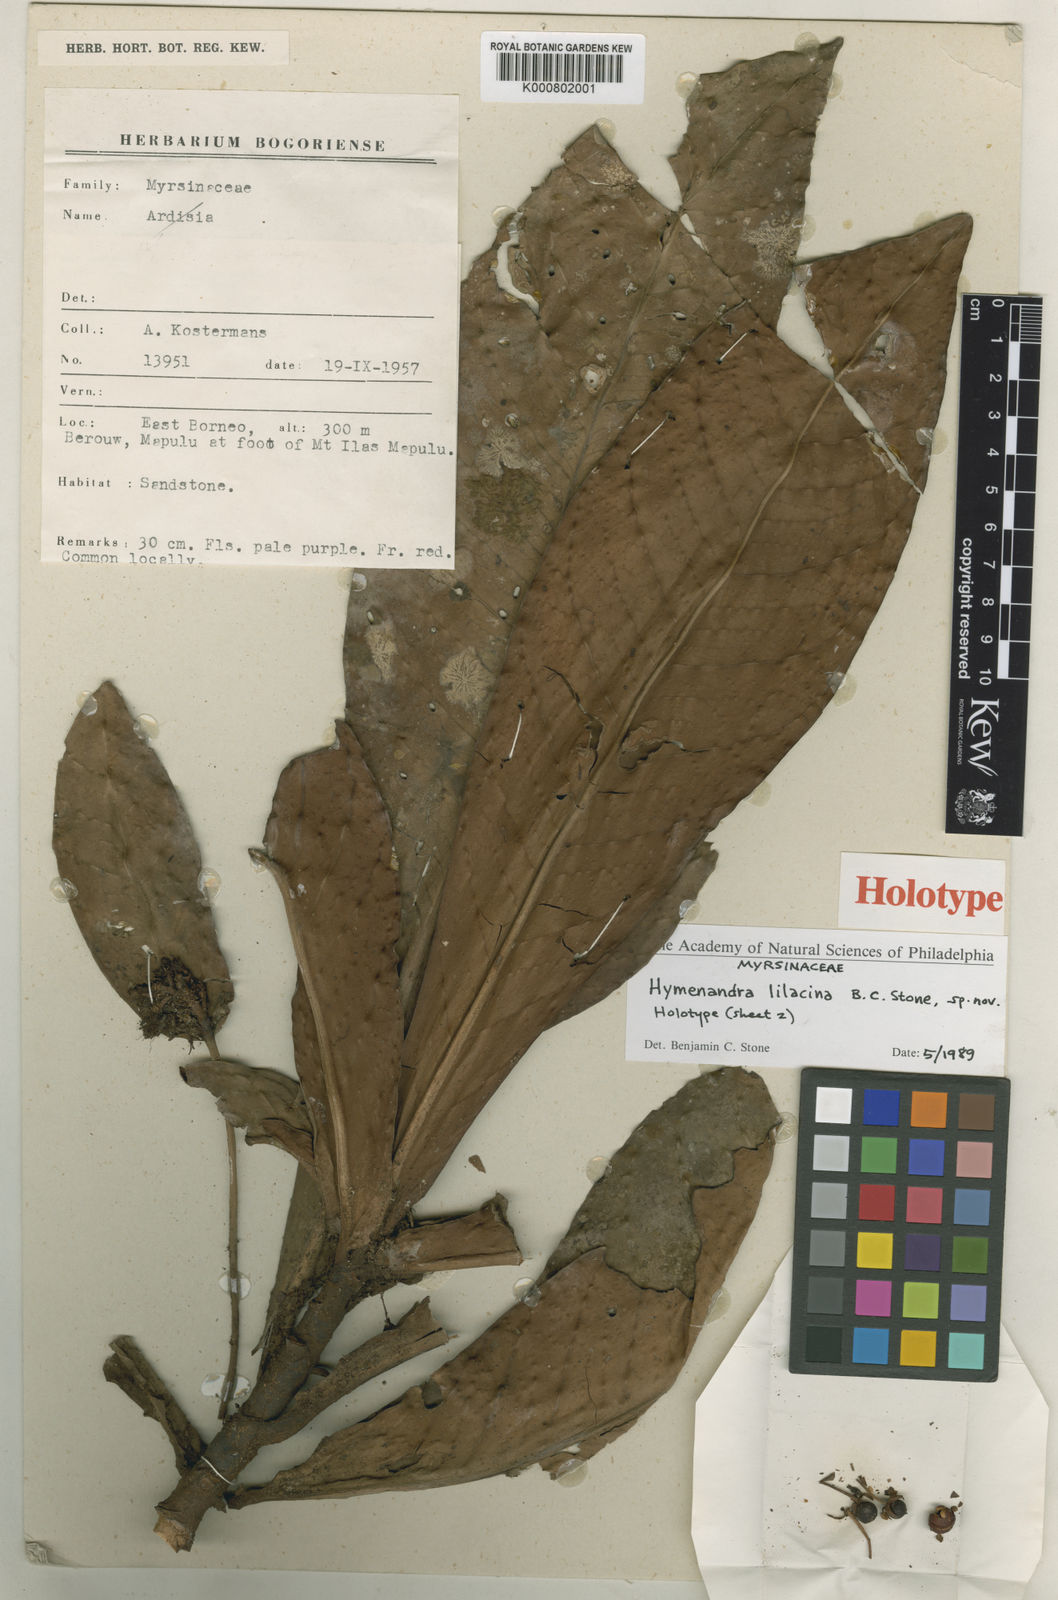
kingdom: Plantae
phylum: Tracheophyta
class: Magnoliopsida
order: Ericales
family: Primulaceae
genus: Hymenandra
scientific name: Hymenandra lilacina
